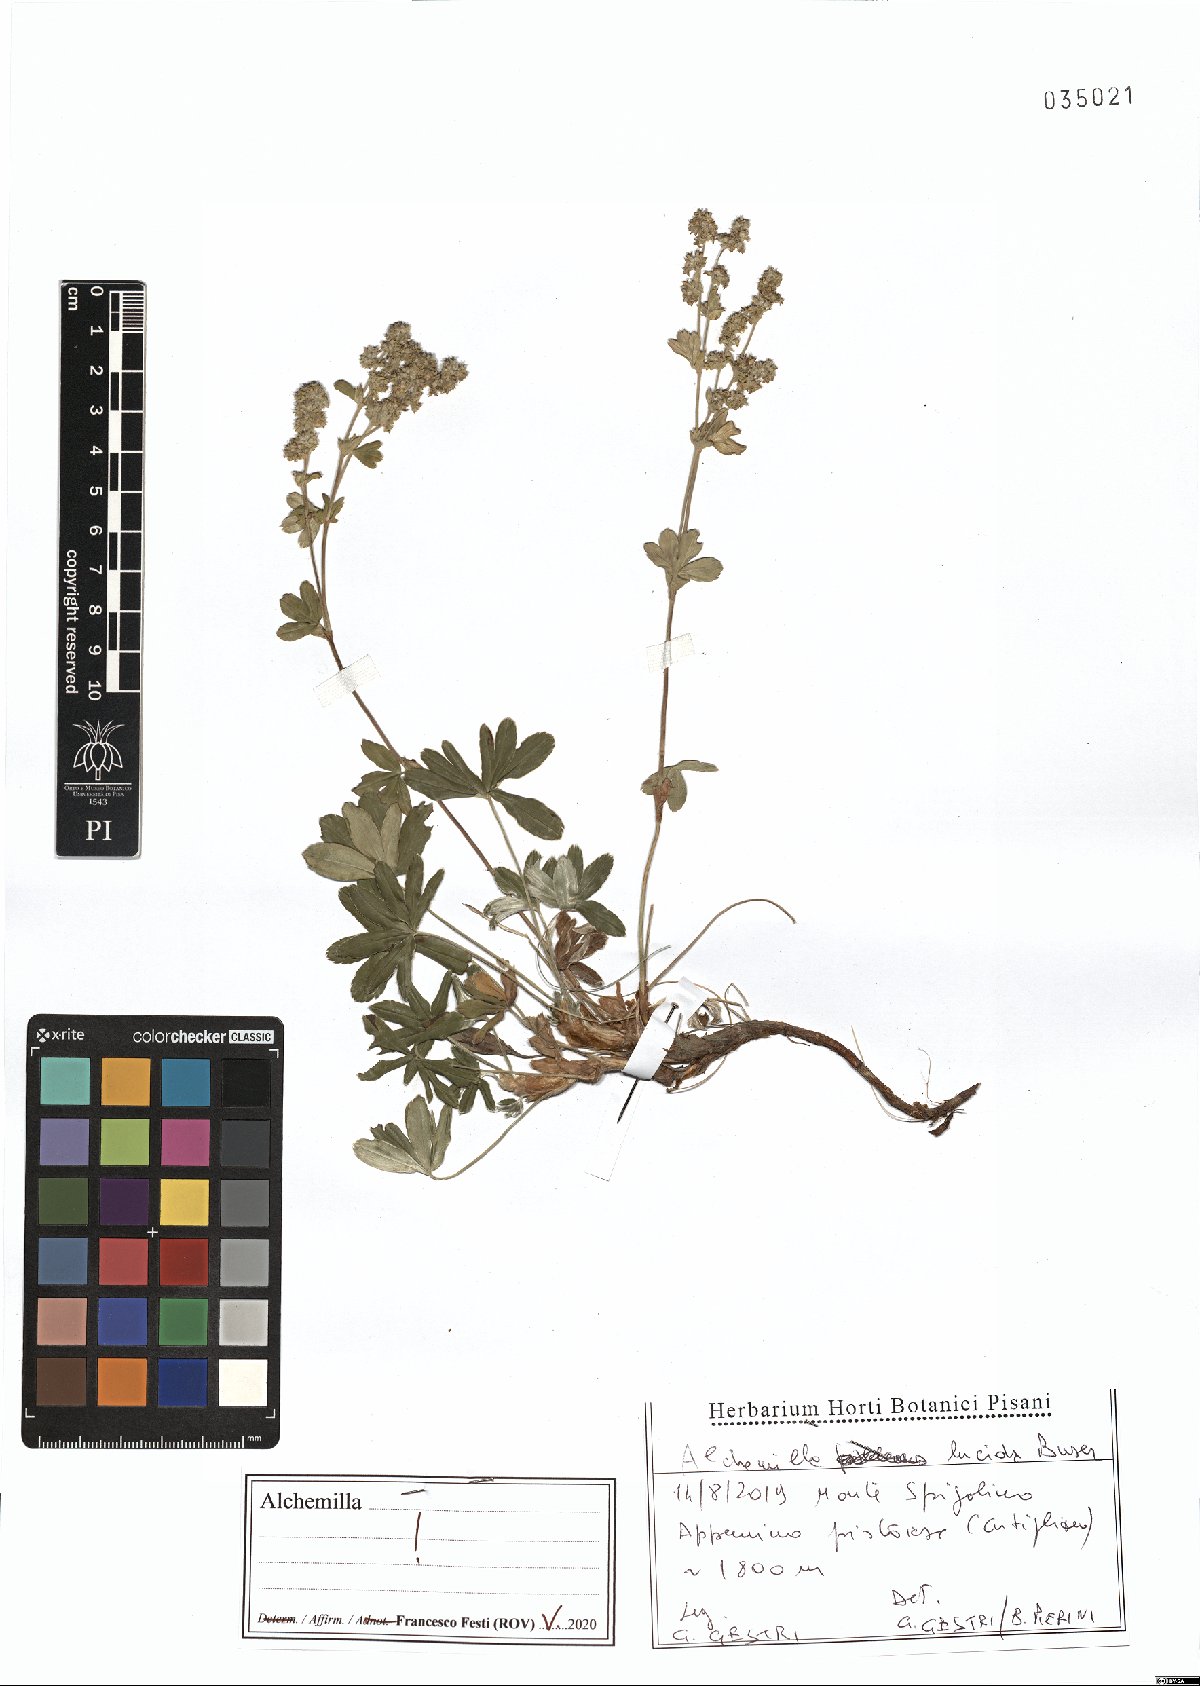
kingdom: Plantae
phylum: Tracheophyta
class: Magnoliopsida
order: Rosales
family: Rosaceae
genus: Alchemilla
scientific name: Alchemilla lucida
